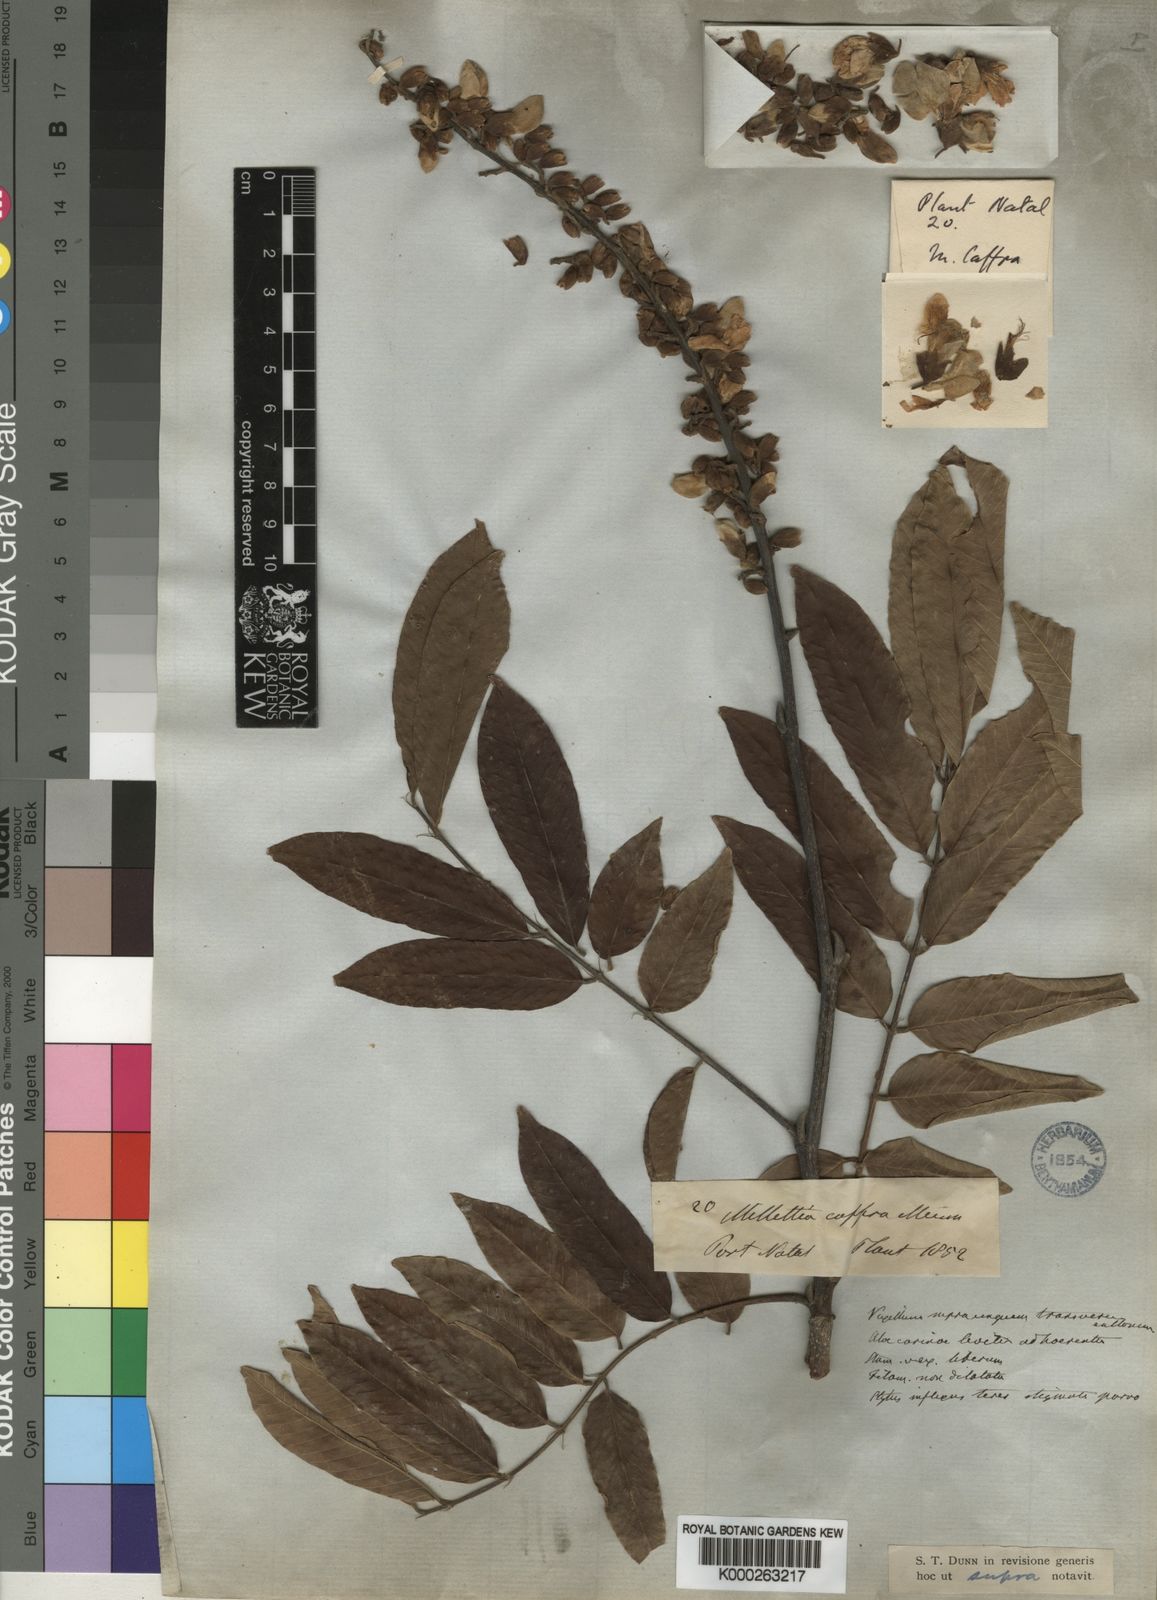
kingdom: Plantae
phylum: Tracheophyta
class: Magnoliopsida
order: Fabales
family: Fabaceae
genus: Millettia
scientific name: Millettia grandis
